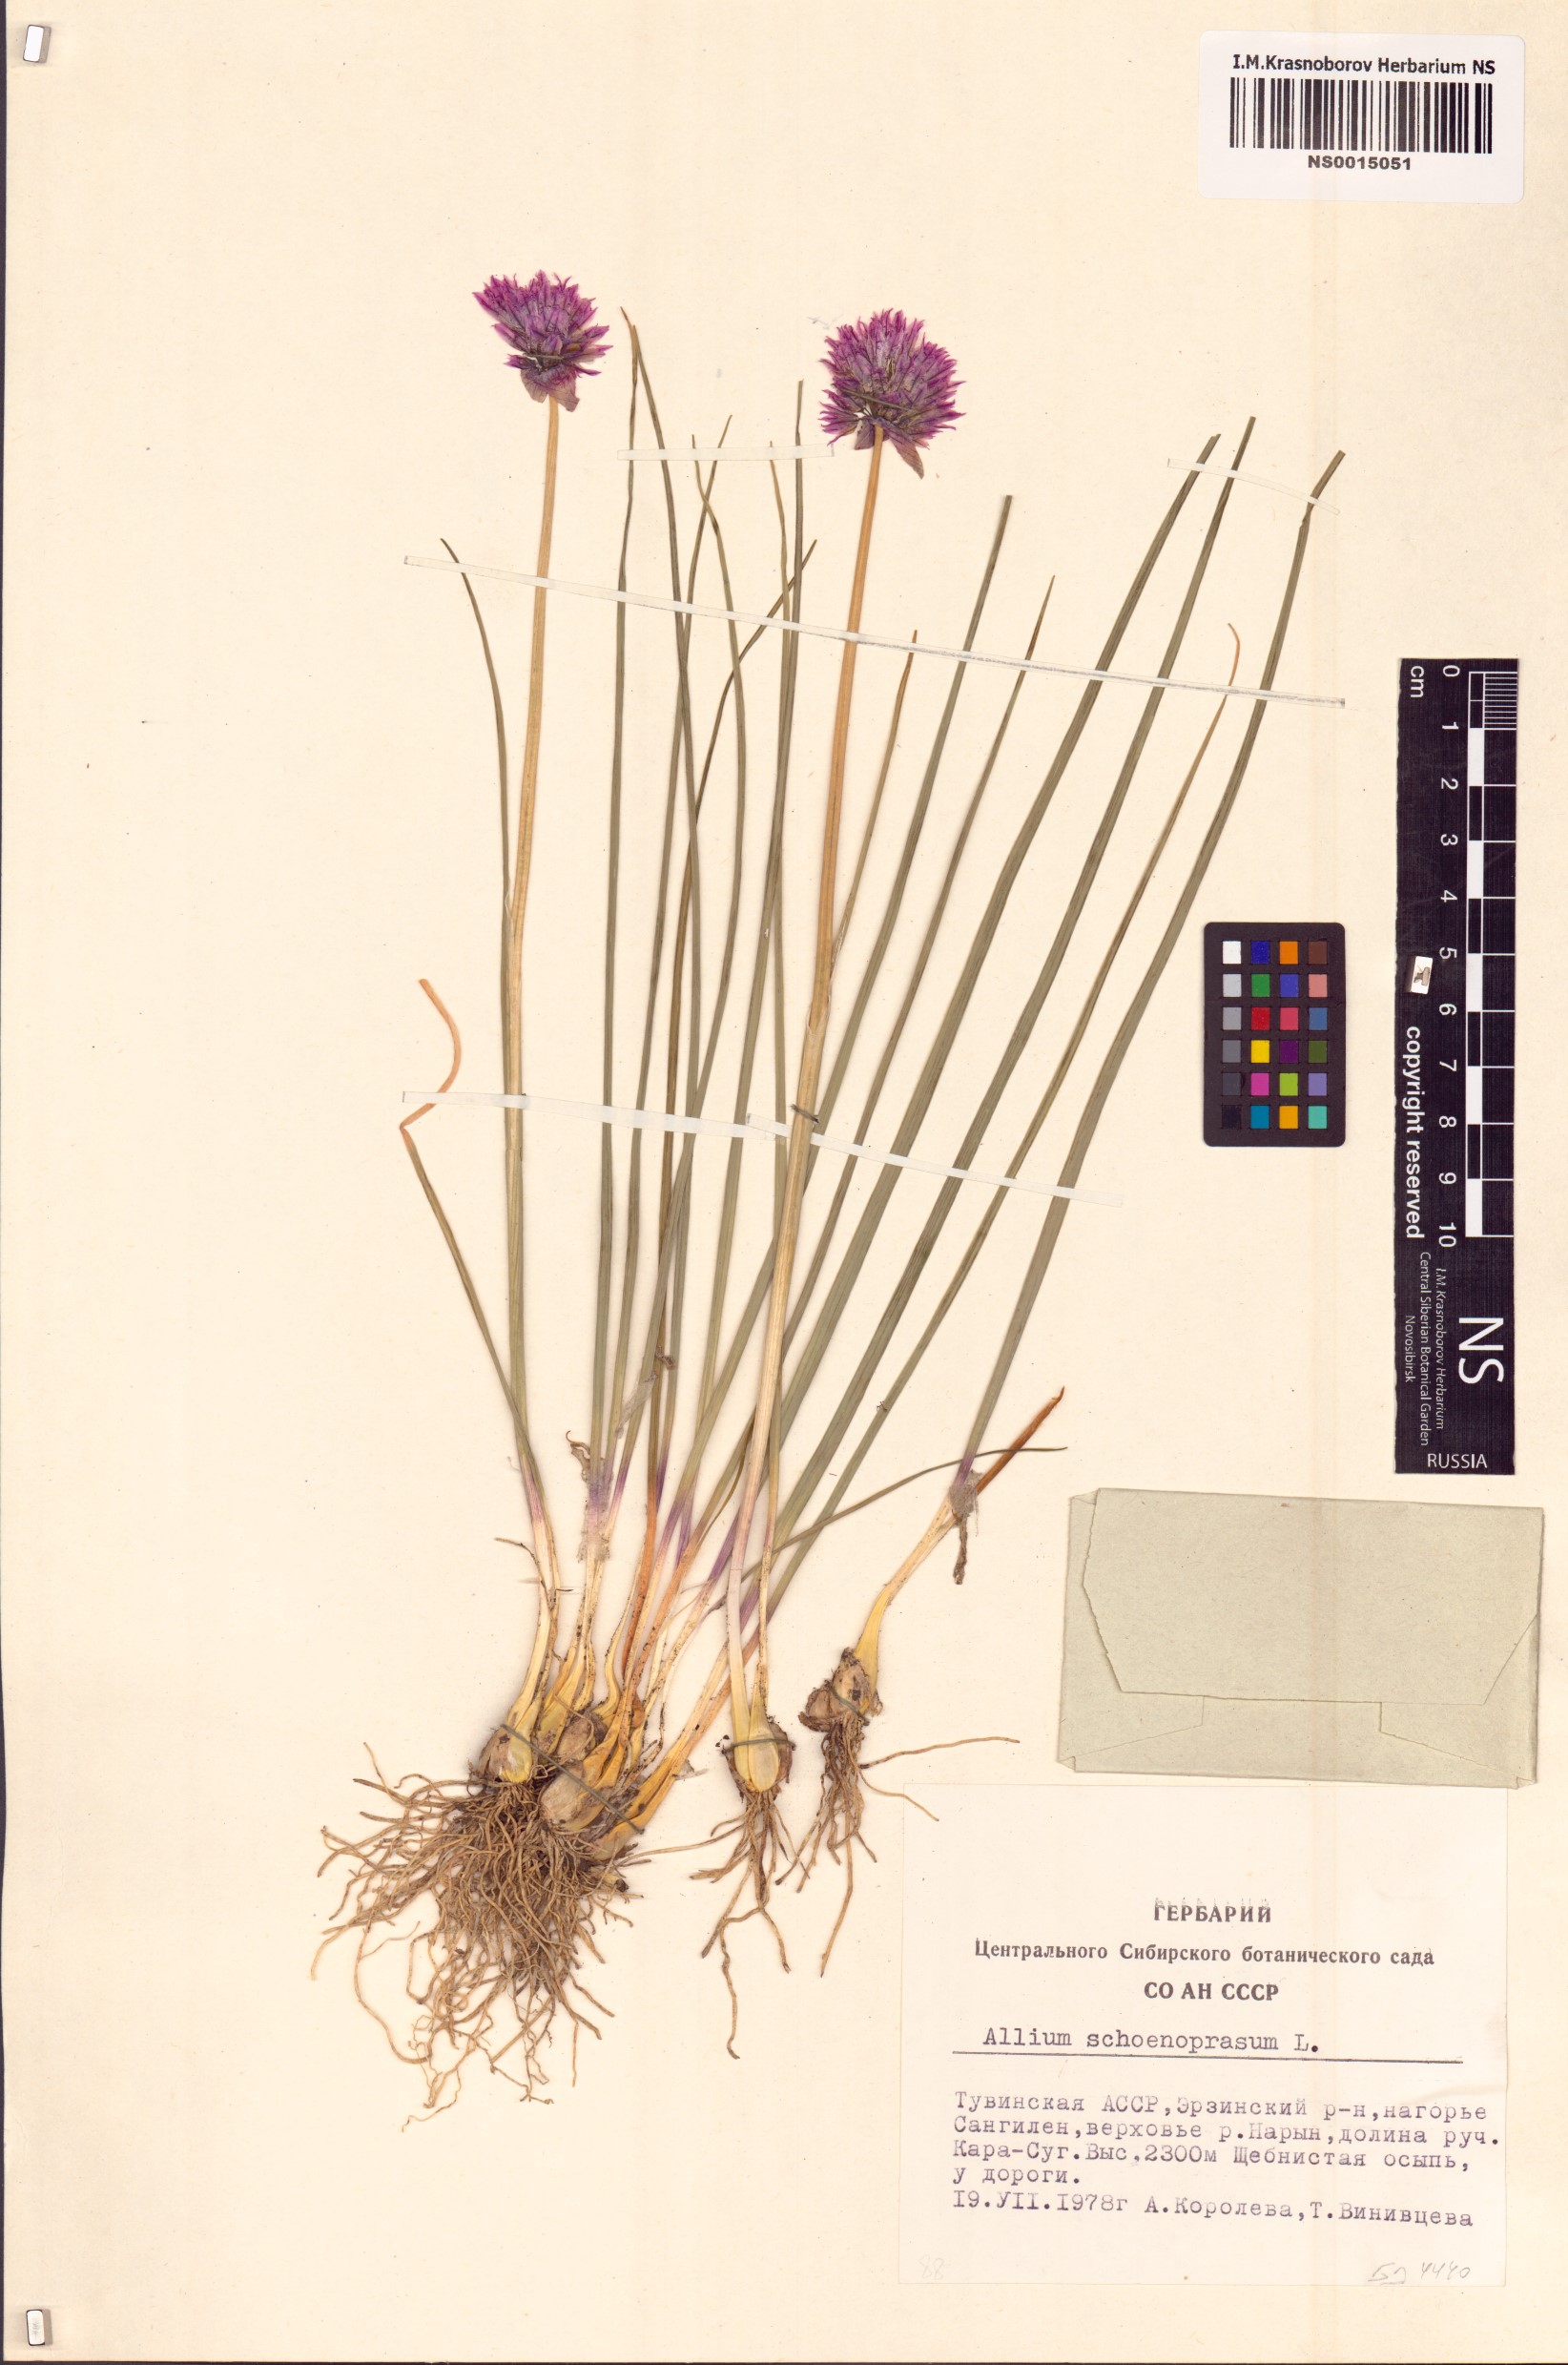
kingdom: Plantae
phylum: Tracheophyta
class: Liliopsida
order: Asparagales
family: Amaryllidaceae
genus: Allium
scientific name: Allium schoenoprasum
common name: Chives
